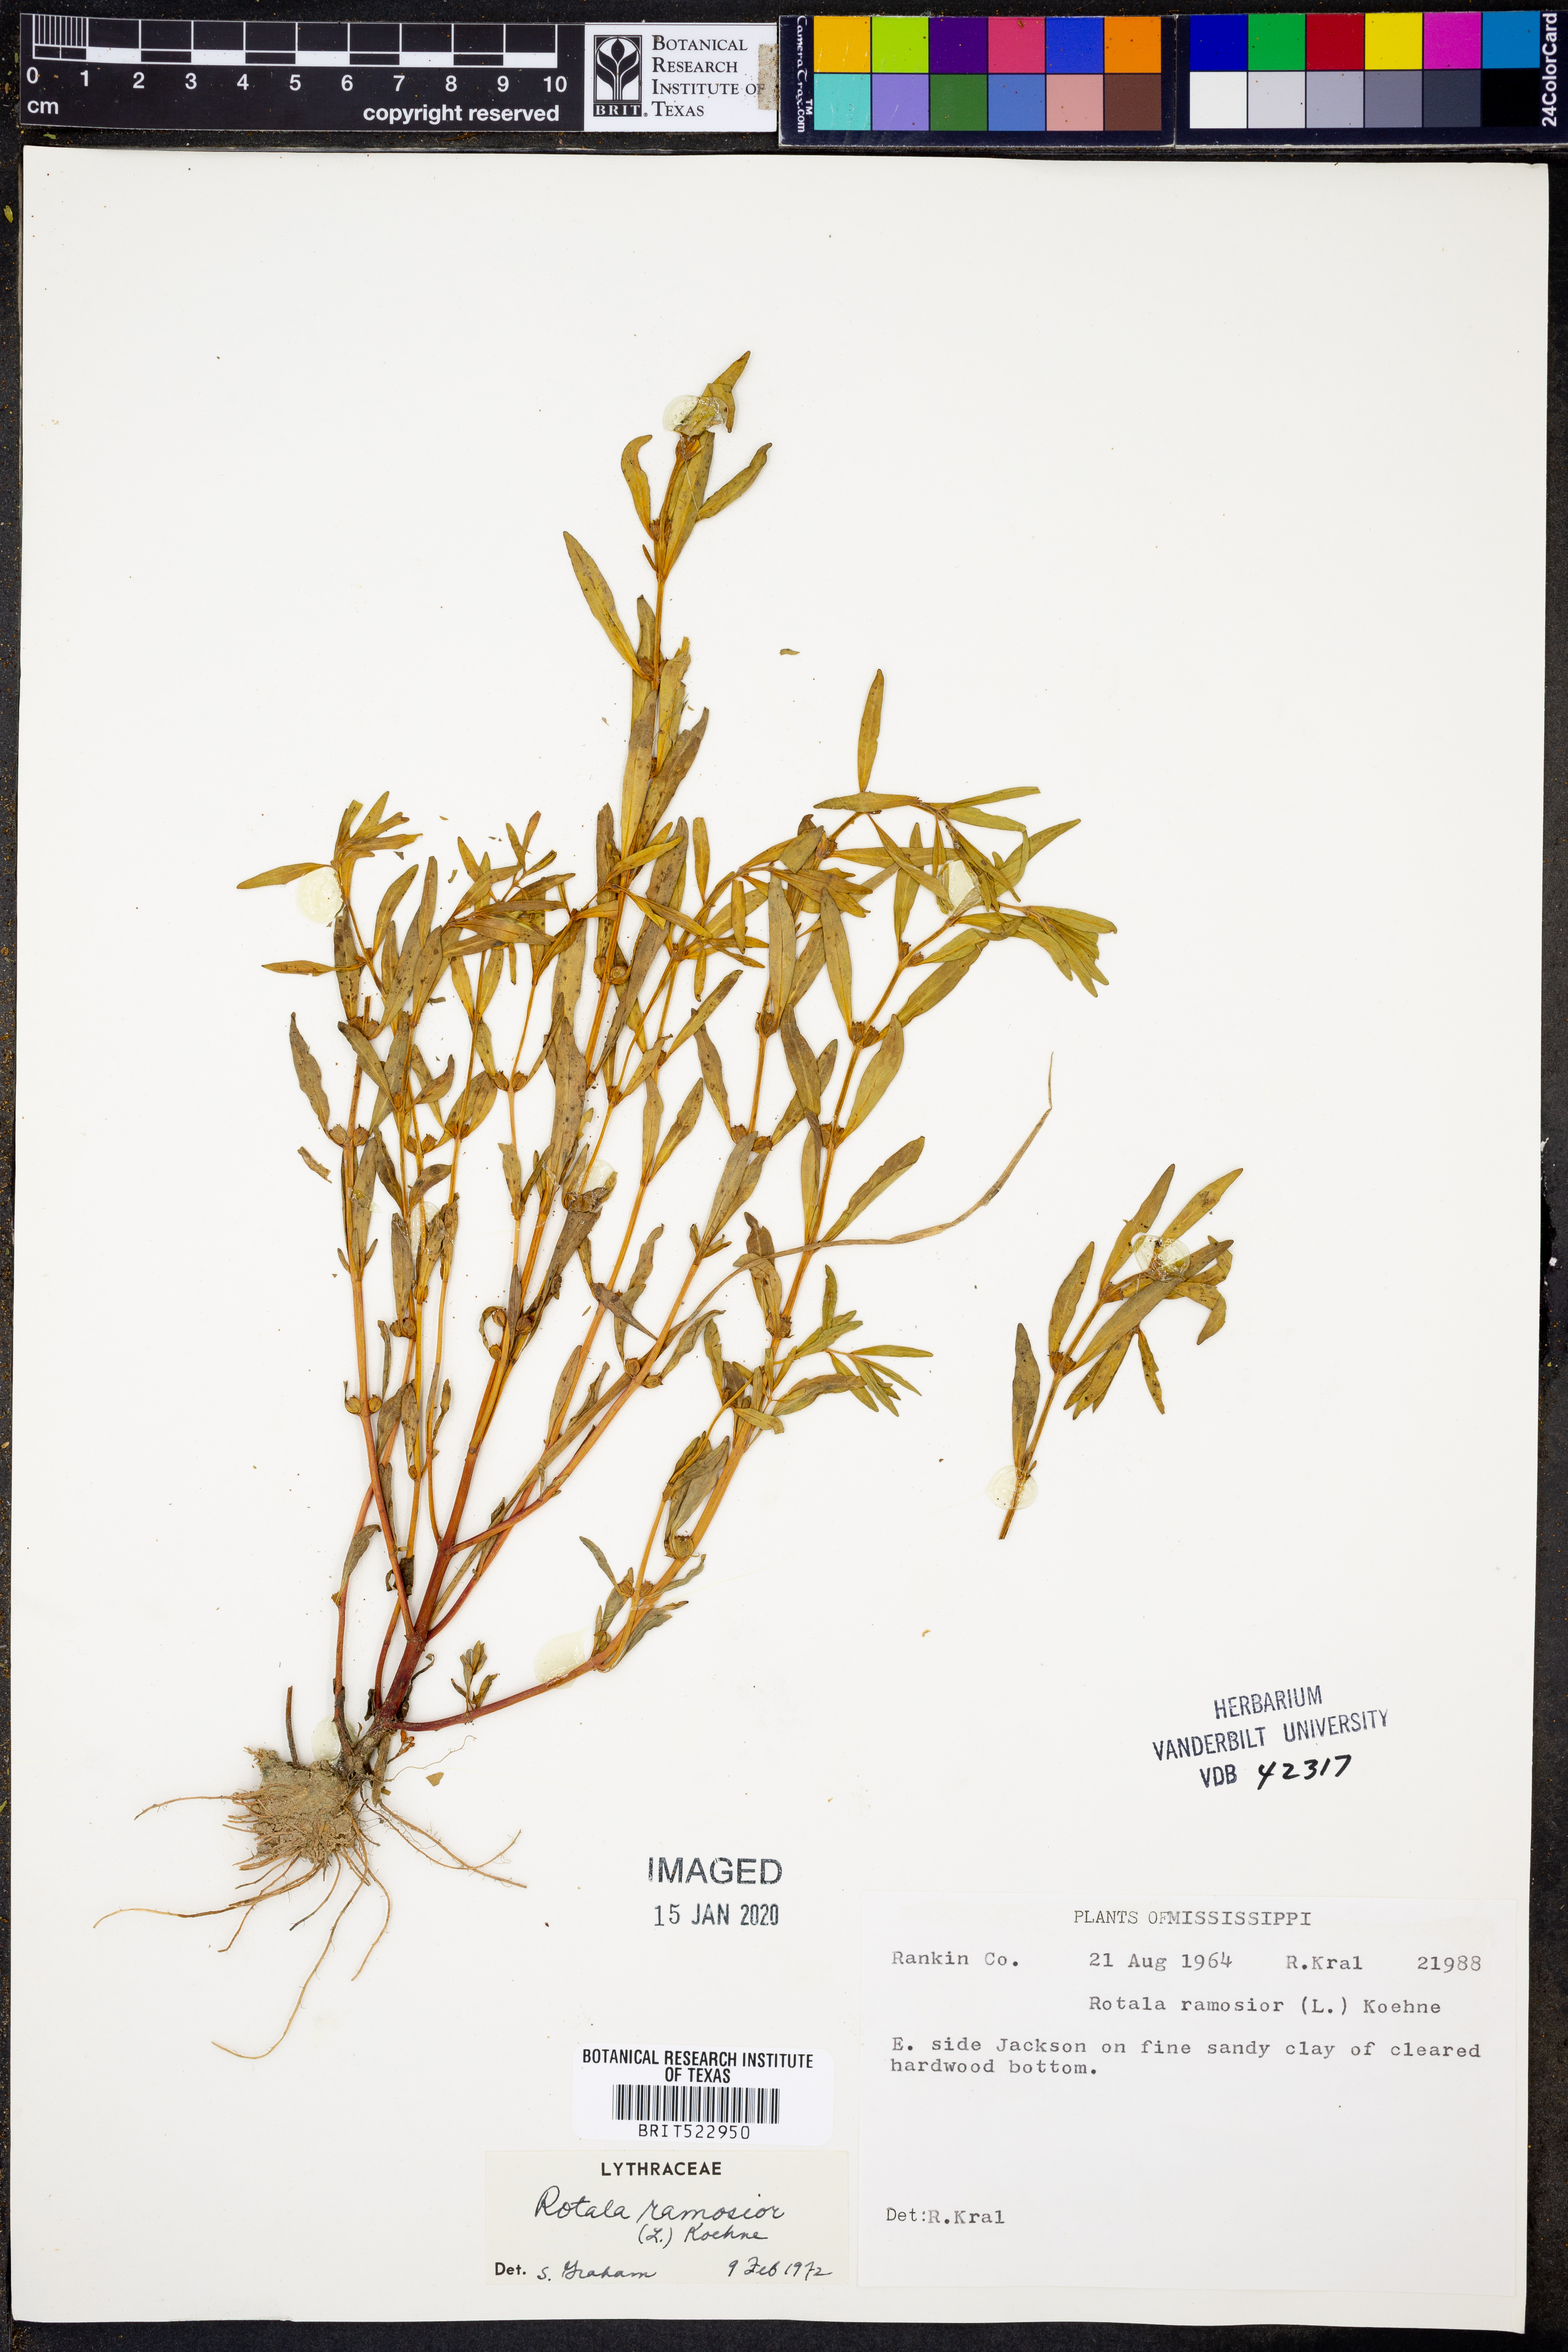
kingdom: Plantae
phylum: Tracheophyta
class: Magnoliopsida
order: Myrtales
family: Lythraceae
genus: Rotala
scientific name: Rotala ramosior
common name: Lowland rotala
